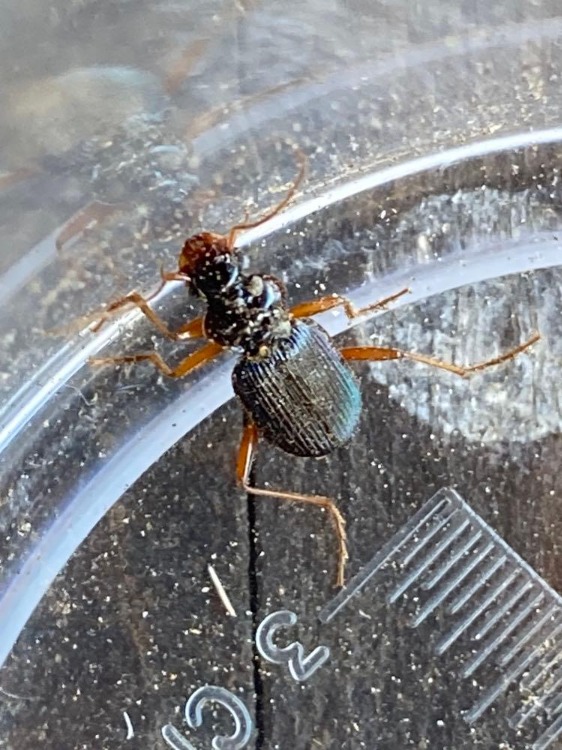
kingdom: Animalia
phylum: Arthropoda
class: Insecta
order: Coleoptera
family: Carabidae
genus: Leistus
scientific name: Leistus rufomarginatus
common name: Stor skægløber
